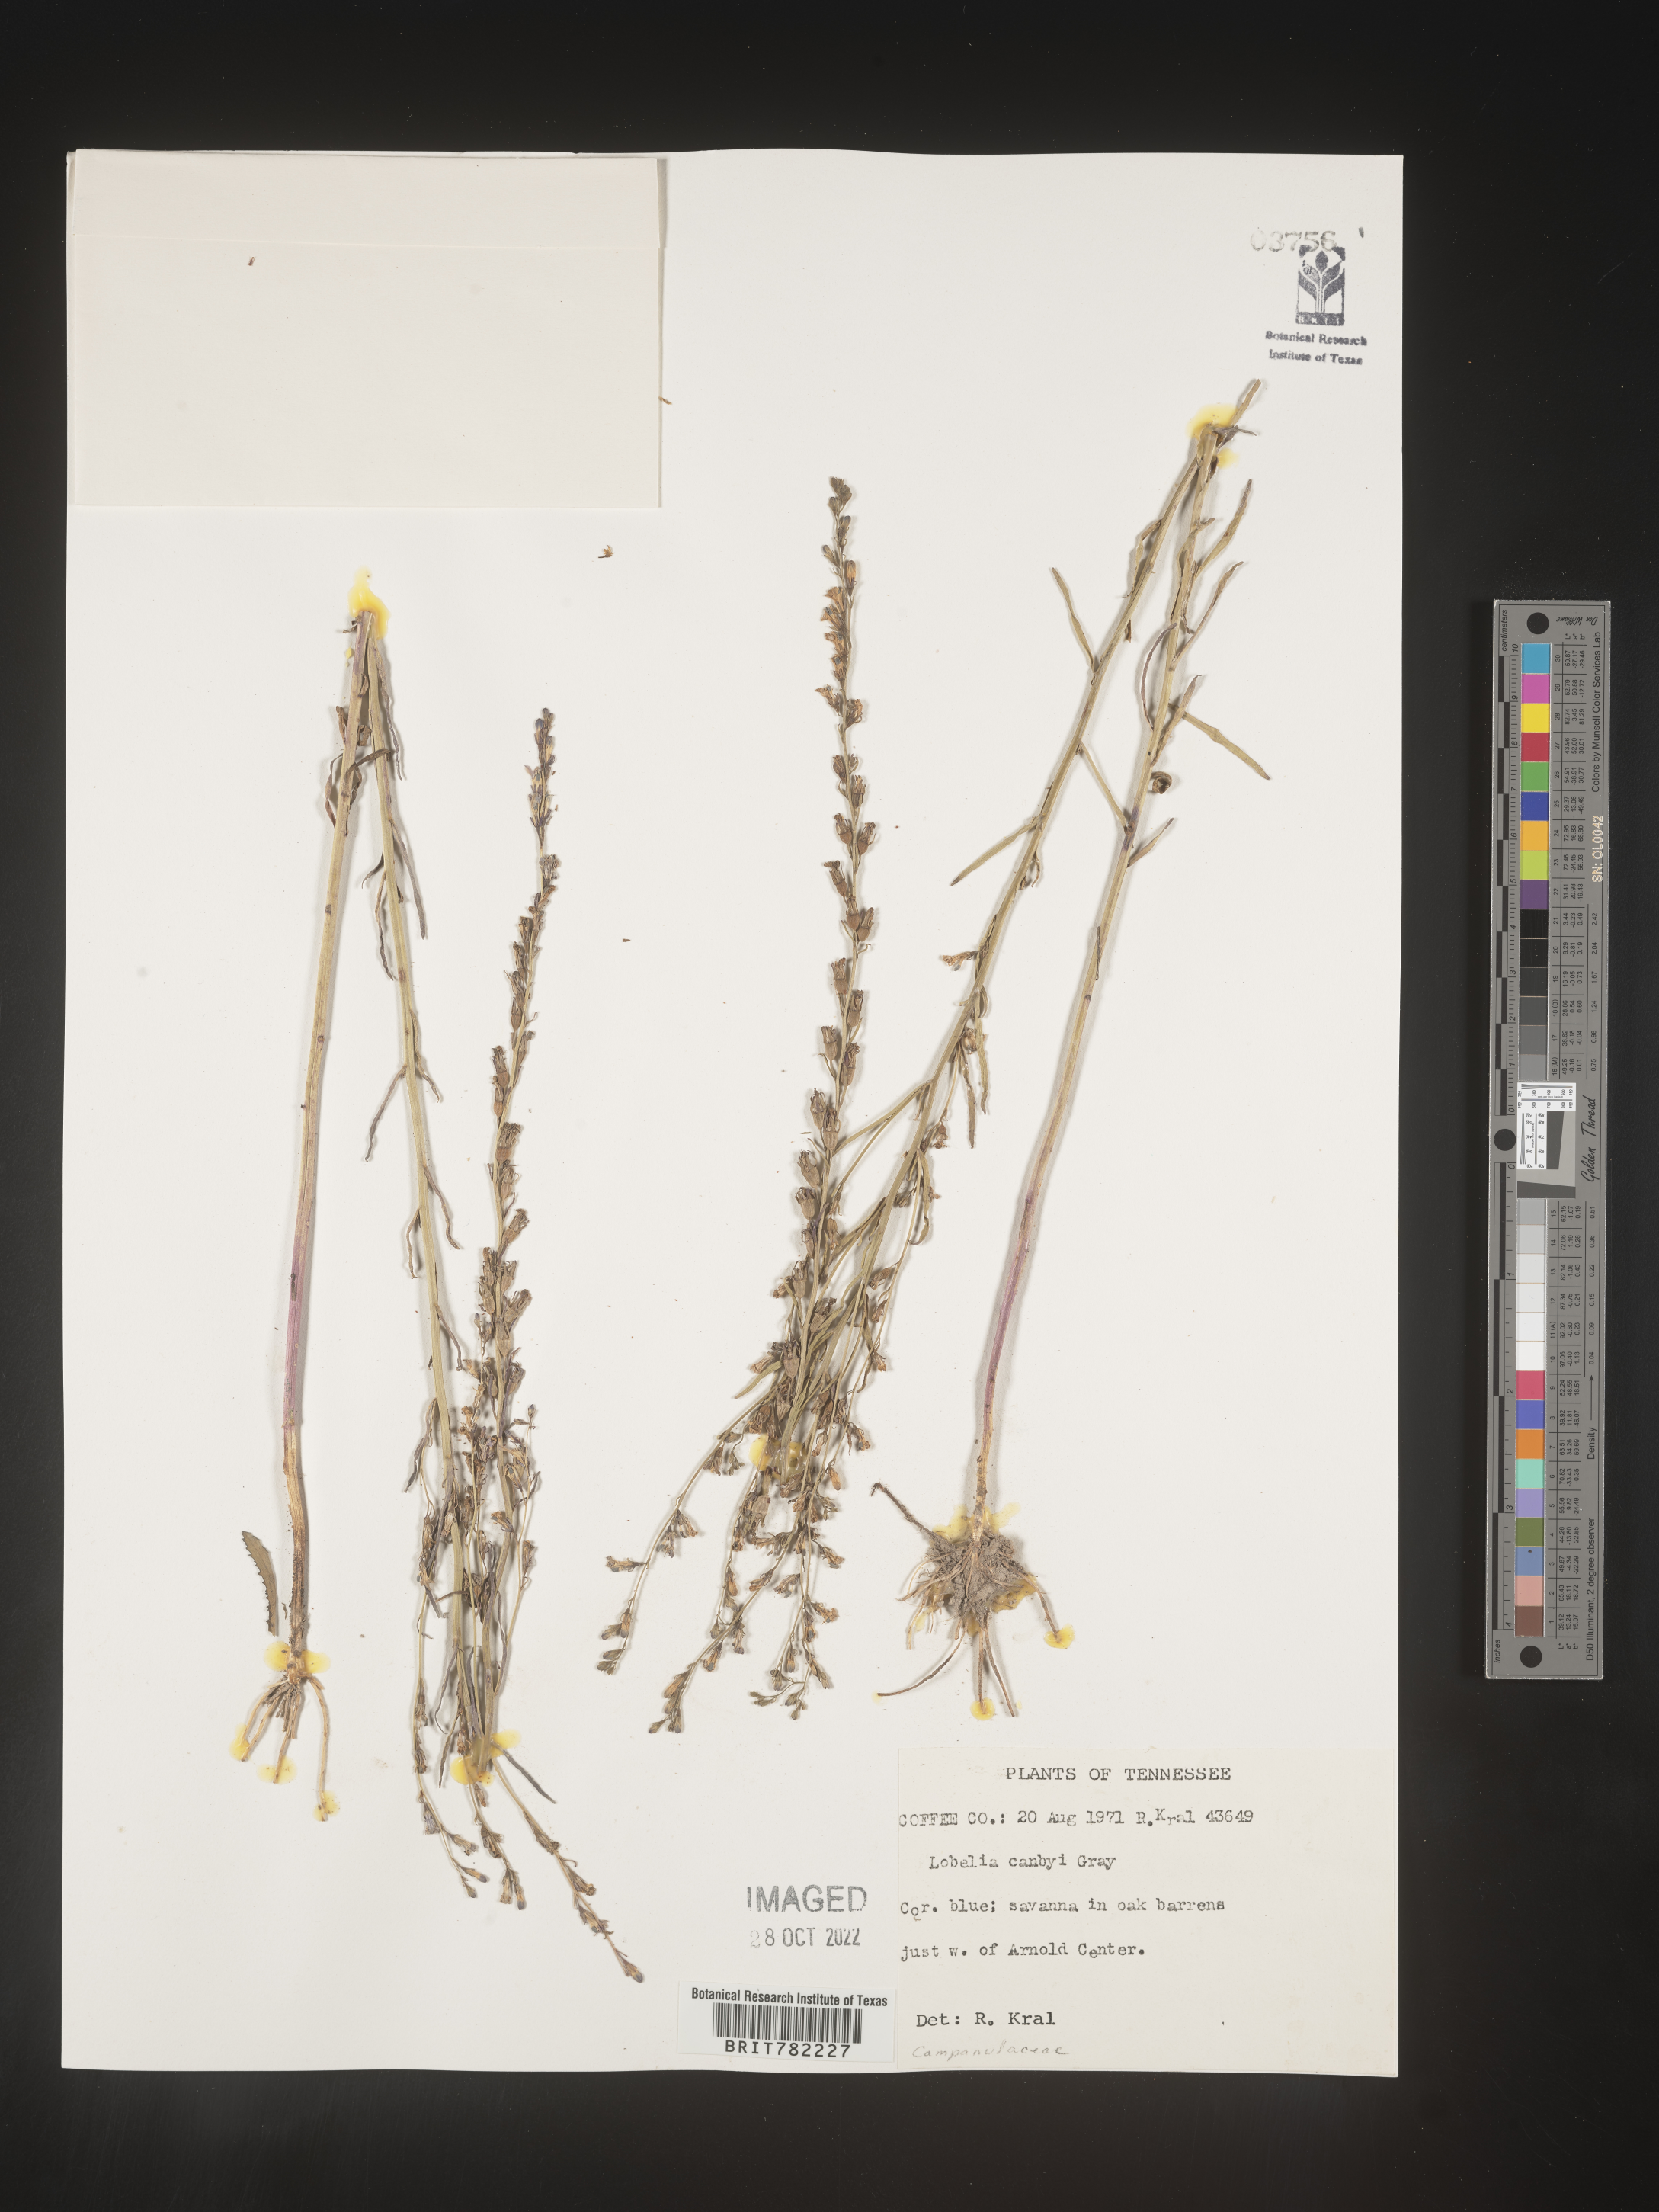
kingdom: Plantae
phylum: Tracheophyta
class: Magnoliopsida
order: Asterales
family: Campanulaceae
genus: Lobelia
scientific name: Lobelia
